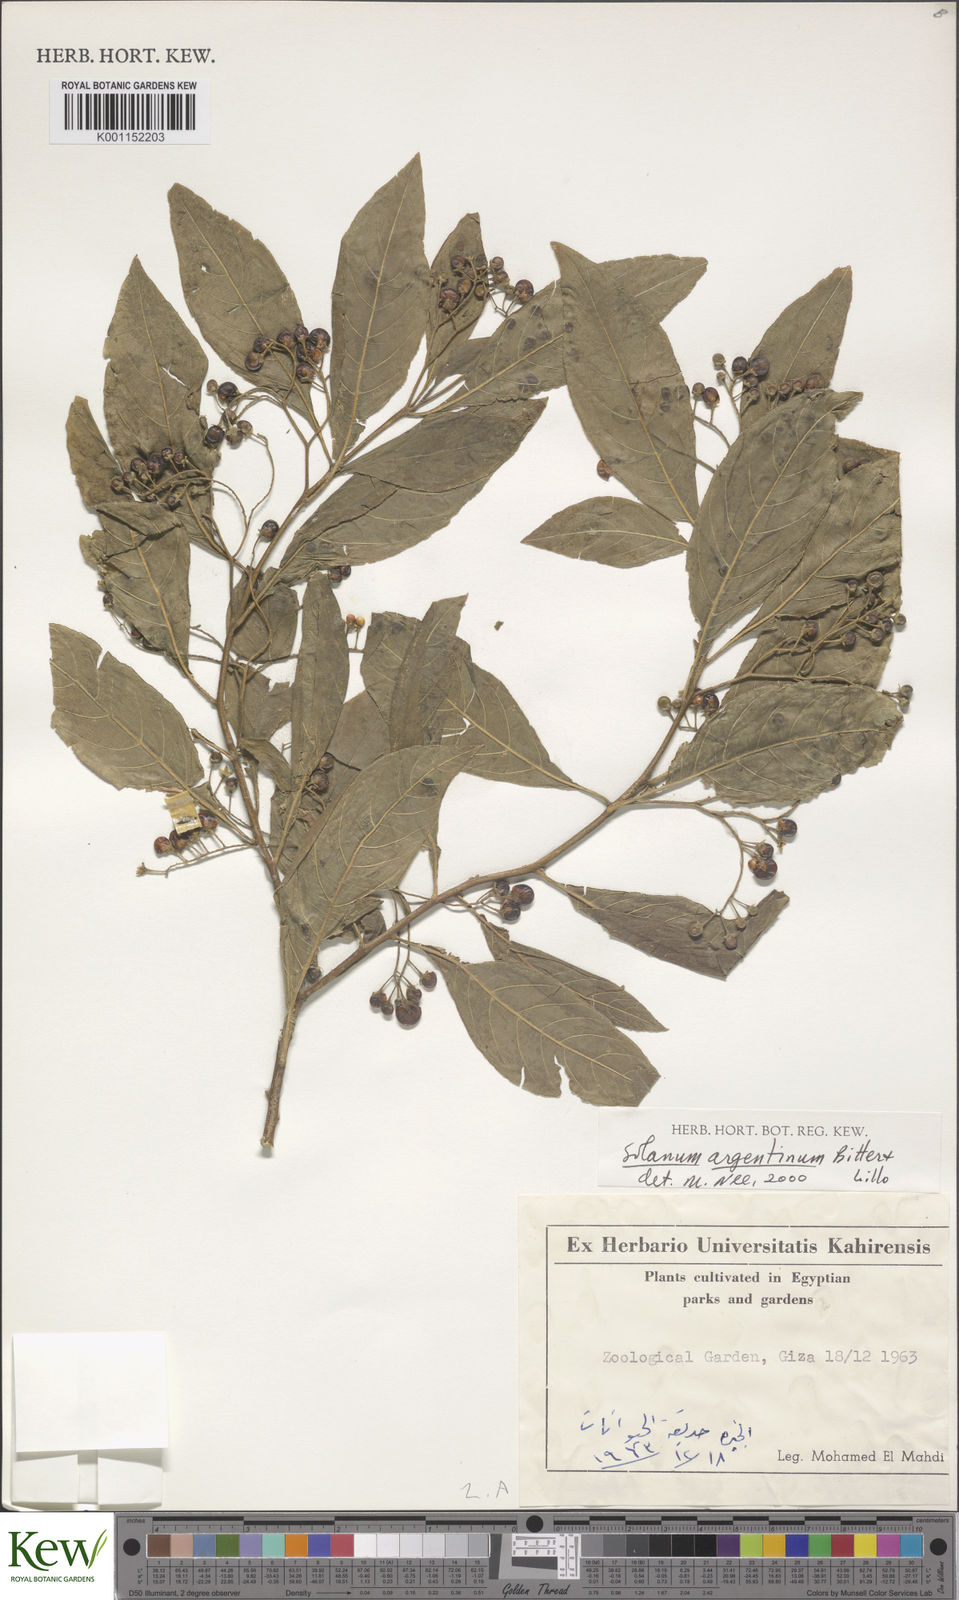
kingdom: Plantae
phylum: Tracheophyta
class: Magnoliopsida
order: Solanales
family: Solanaceae
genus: Solanum
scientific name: Solanum argentinum
